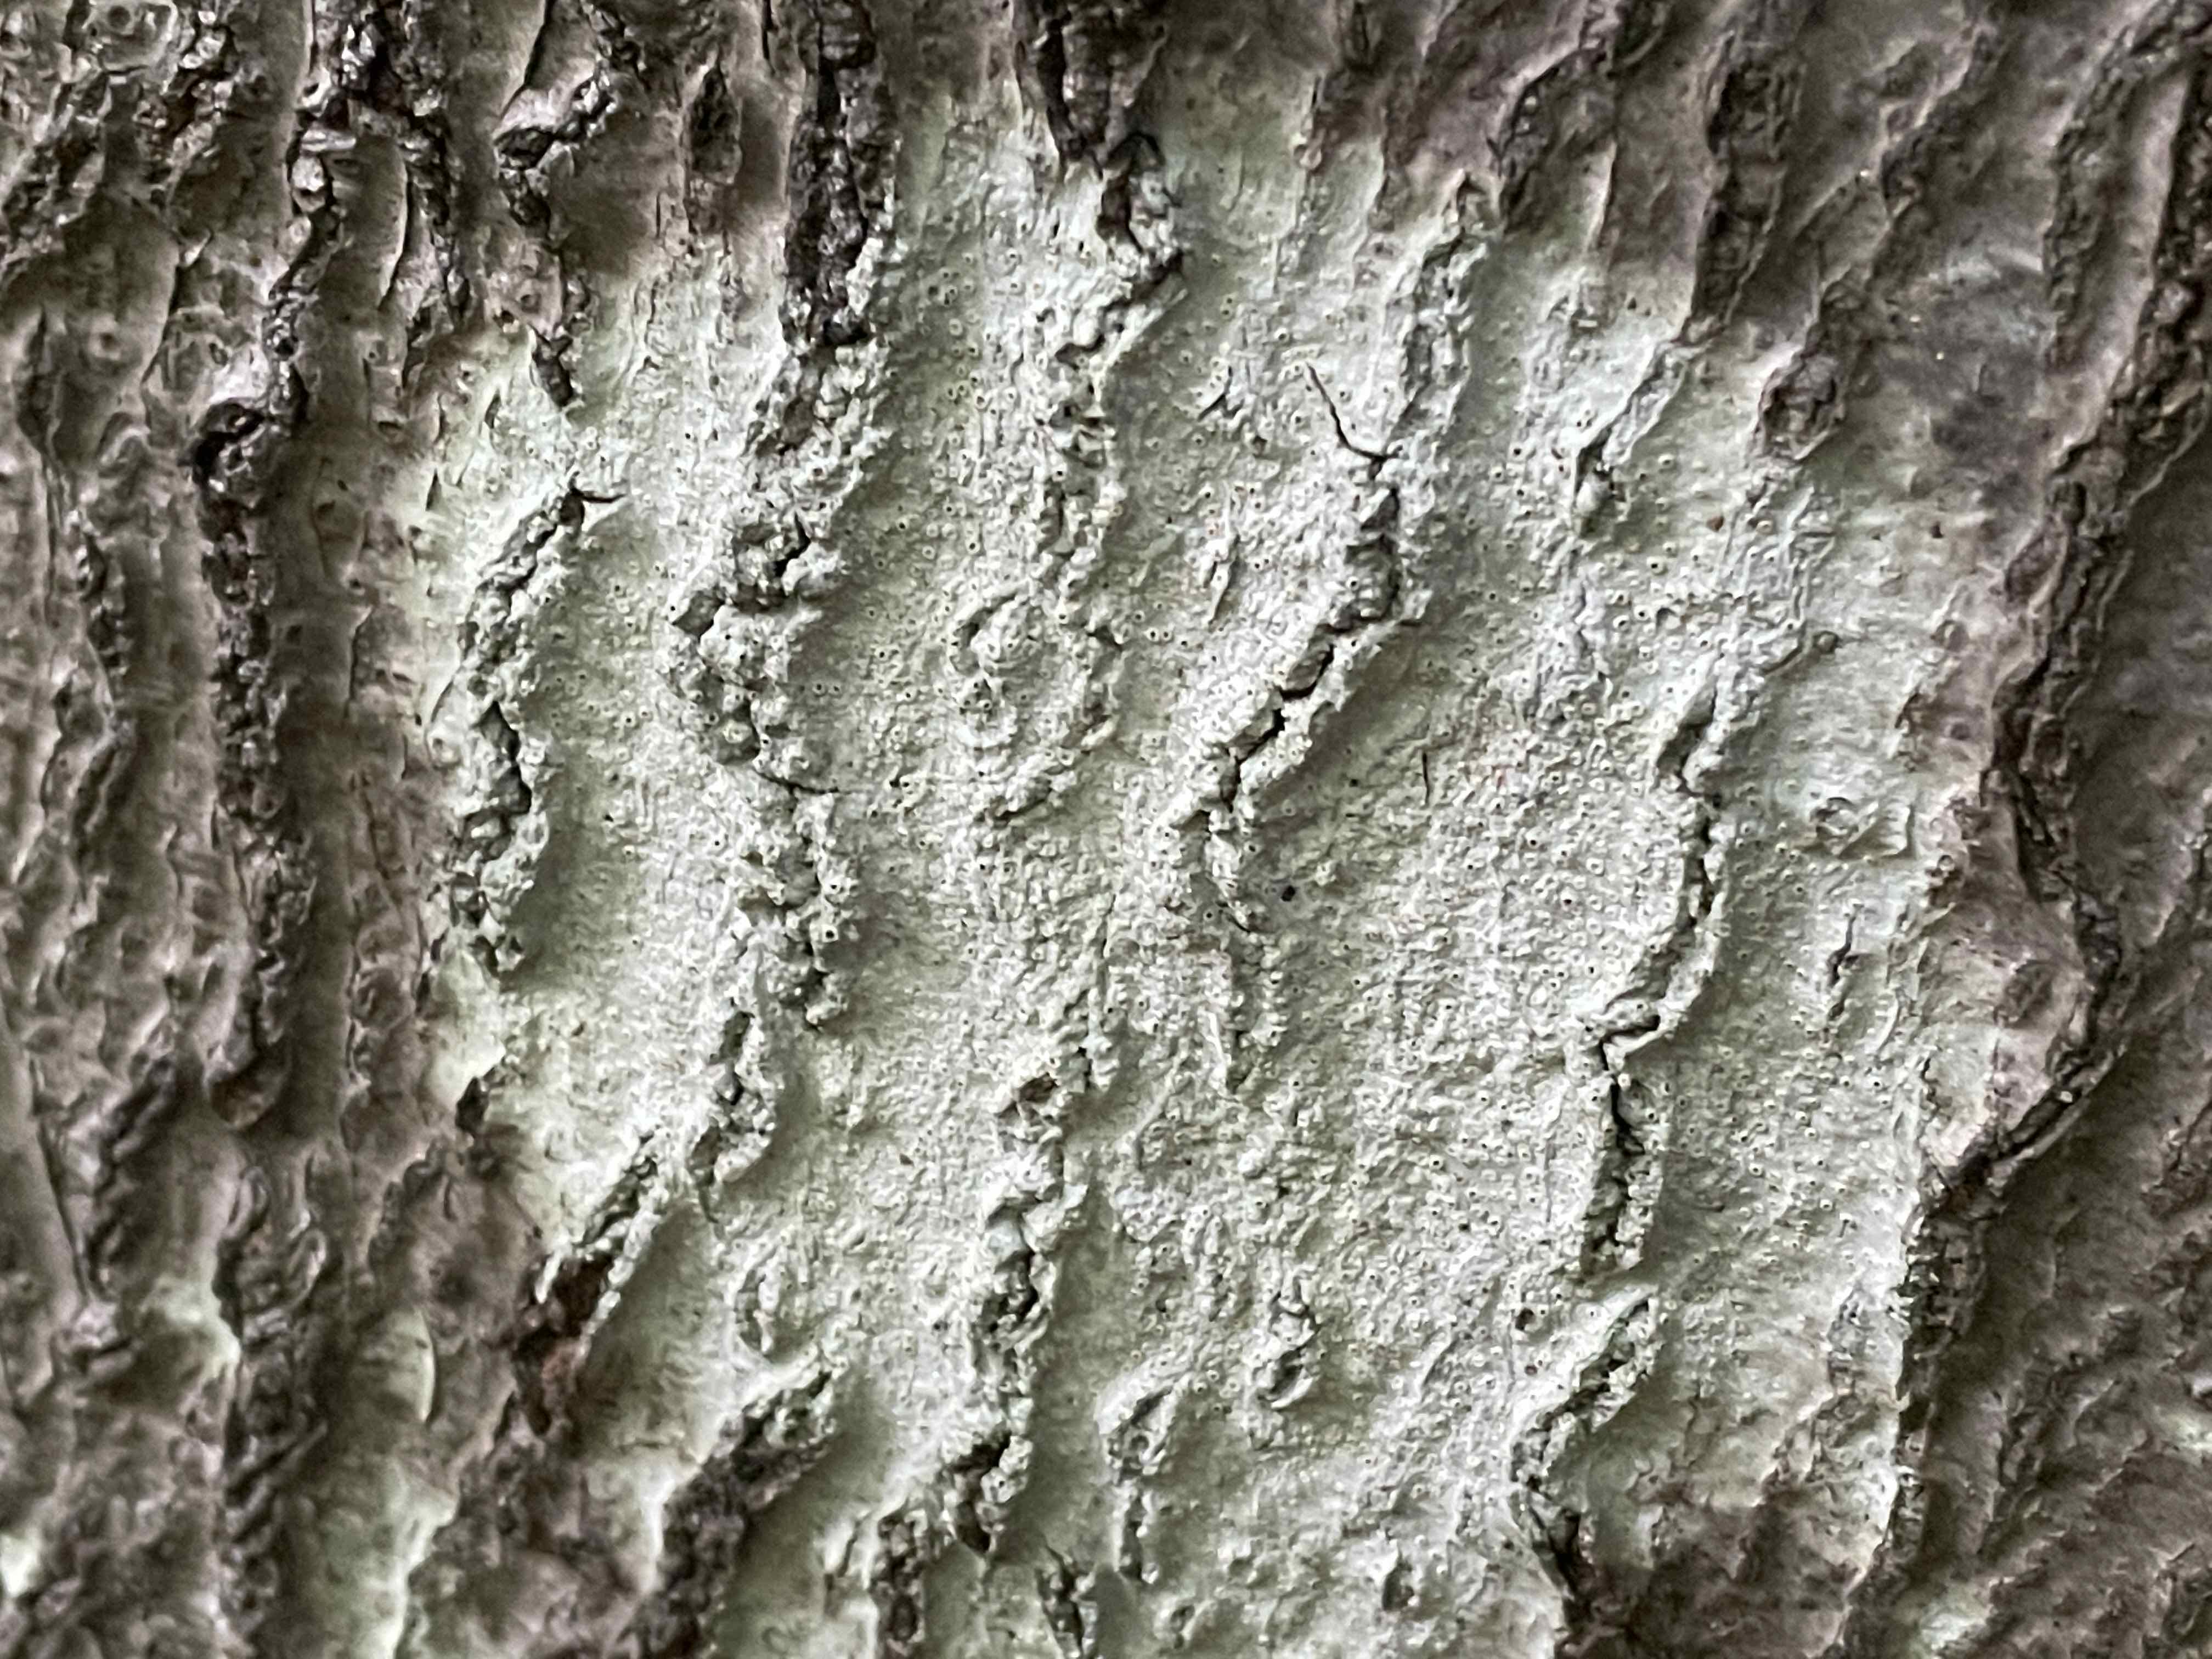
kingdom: Fungi
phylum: Ascomycota
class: Lecanoromycetes
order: Ostropales
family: Graphidaceae
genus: Thelotrema
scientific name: Thelotrema lepadinum
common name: almindelig slørkantlav
